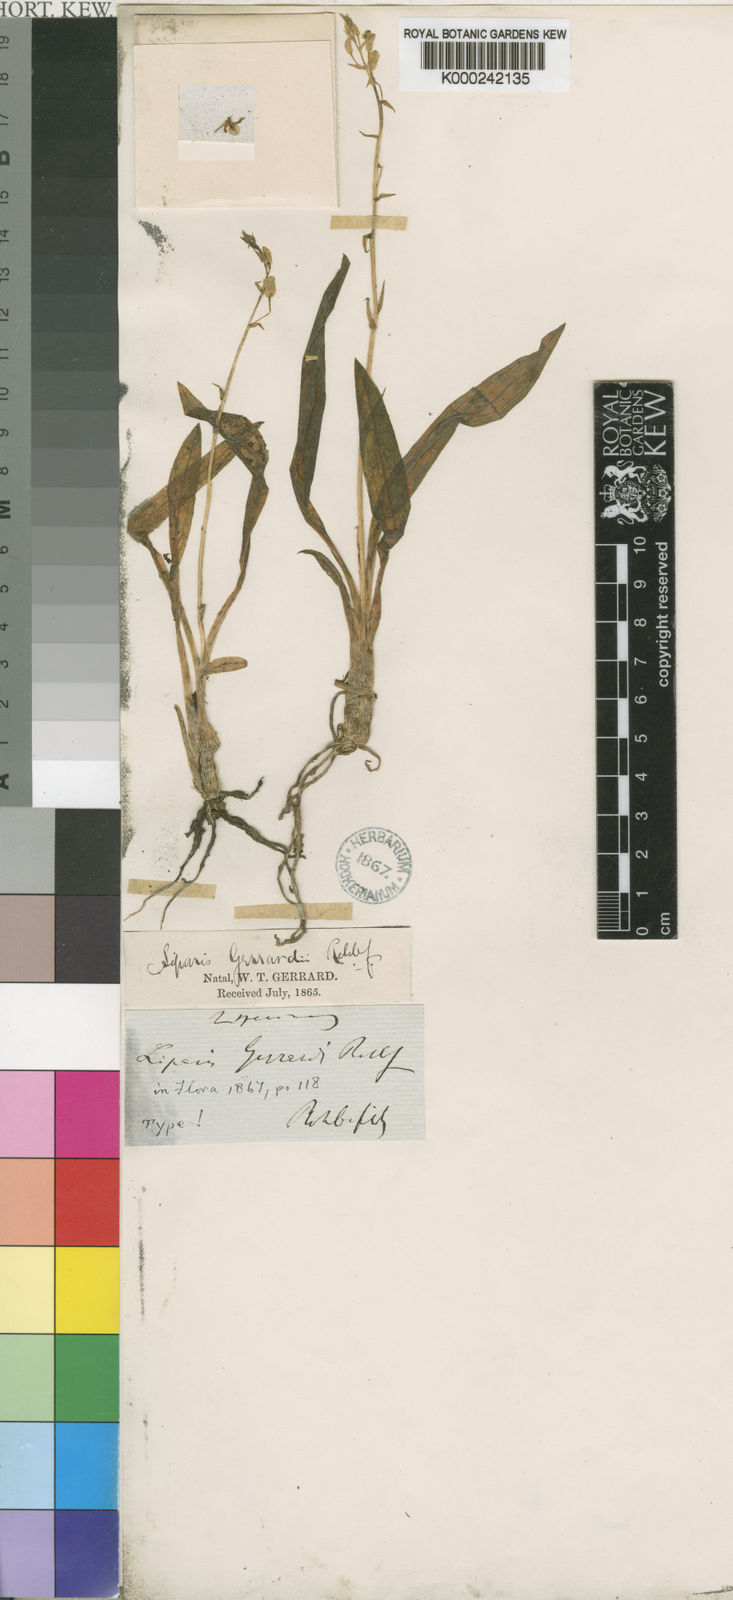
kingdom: Plantae
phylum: Tracheophyta
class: Liliopsida
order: Asparagales
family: Orchidaceae
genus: Liparis
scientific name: Liparis bowkeri
